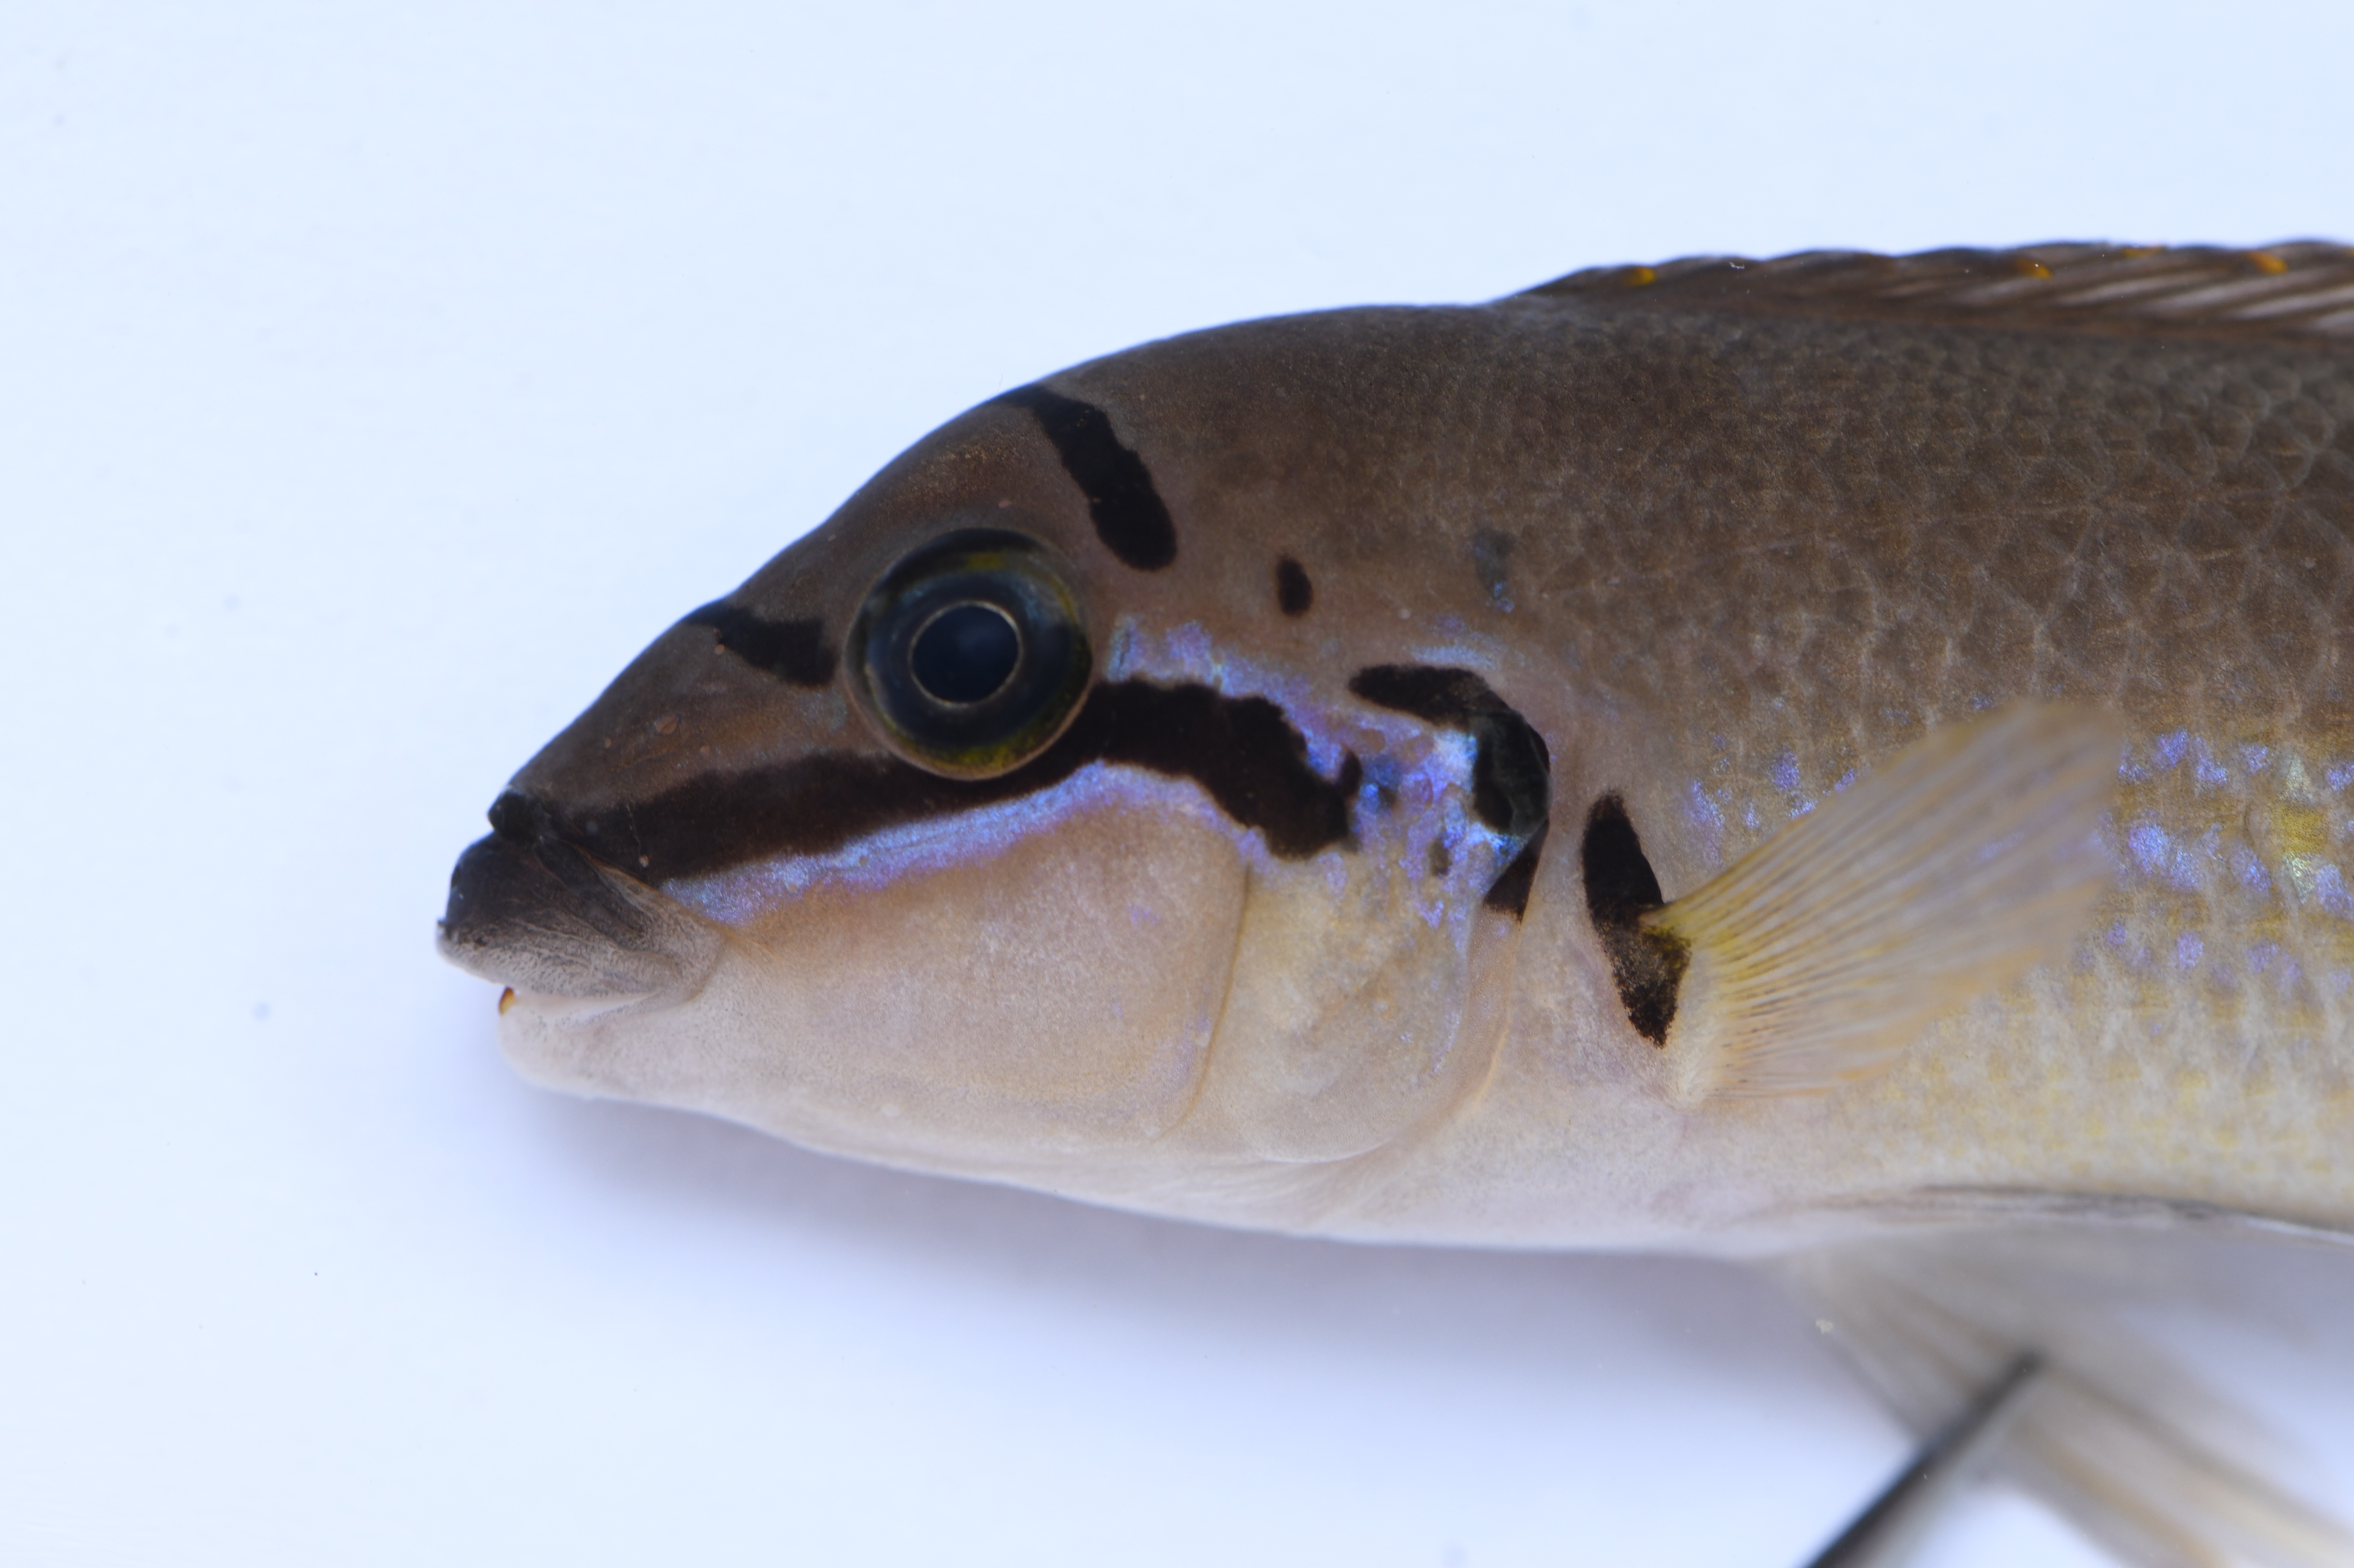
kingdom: Animalia
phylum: Chordata
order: Perciformes
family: Cichlidae
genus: Chalinochromis
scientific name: Chalinochromis brichardi
